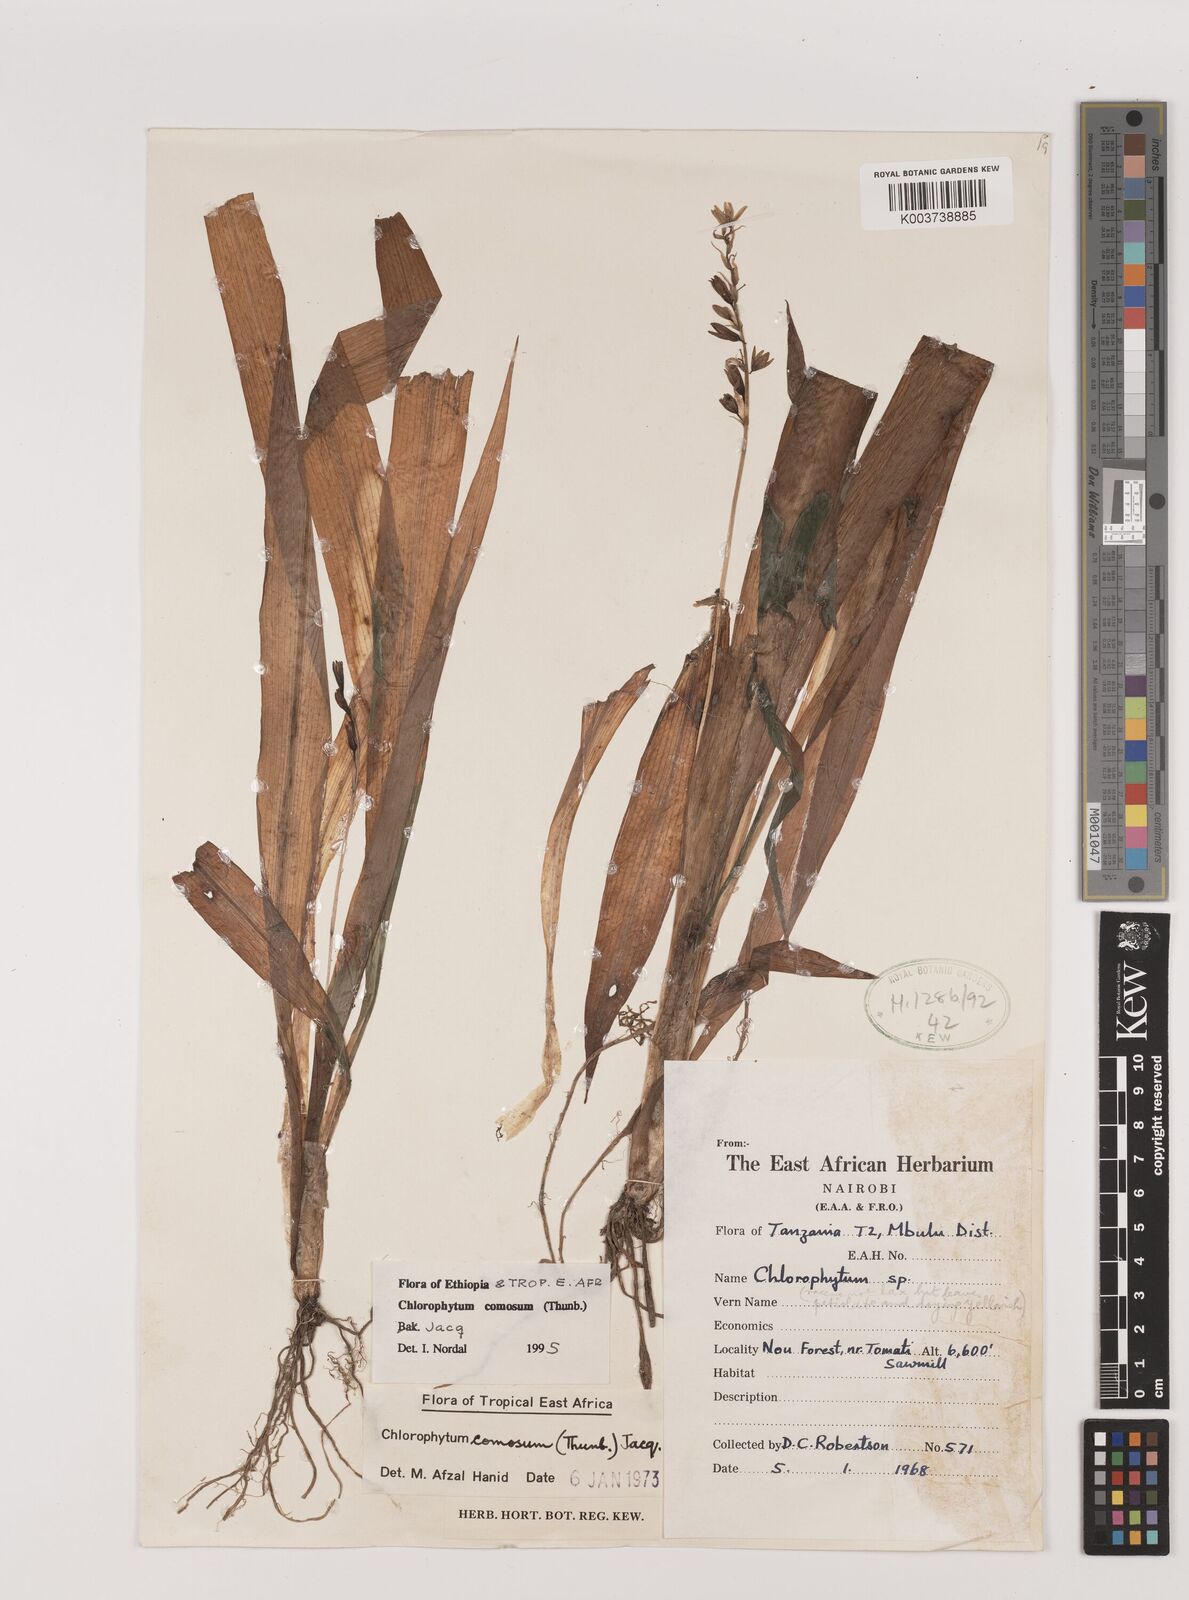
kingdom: Plantae
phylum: Tracheophyta
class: Liliopsida
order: Asparagales
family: Asparagaceae
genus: Chlorophytum
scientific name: Chlorophytum comosum
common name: Spider plant
